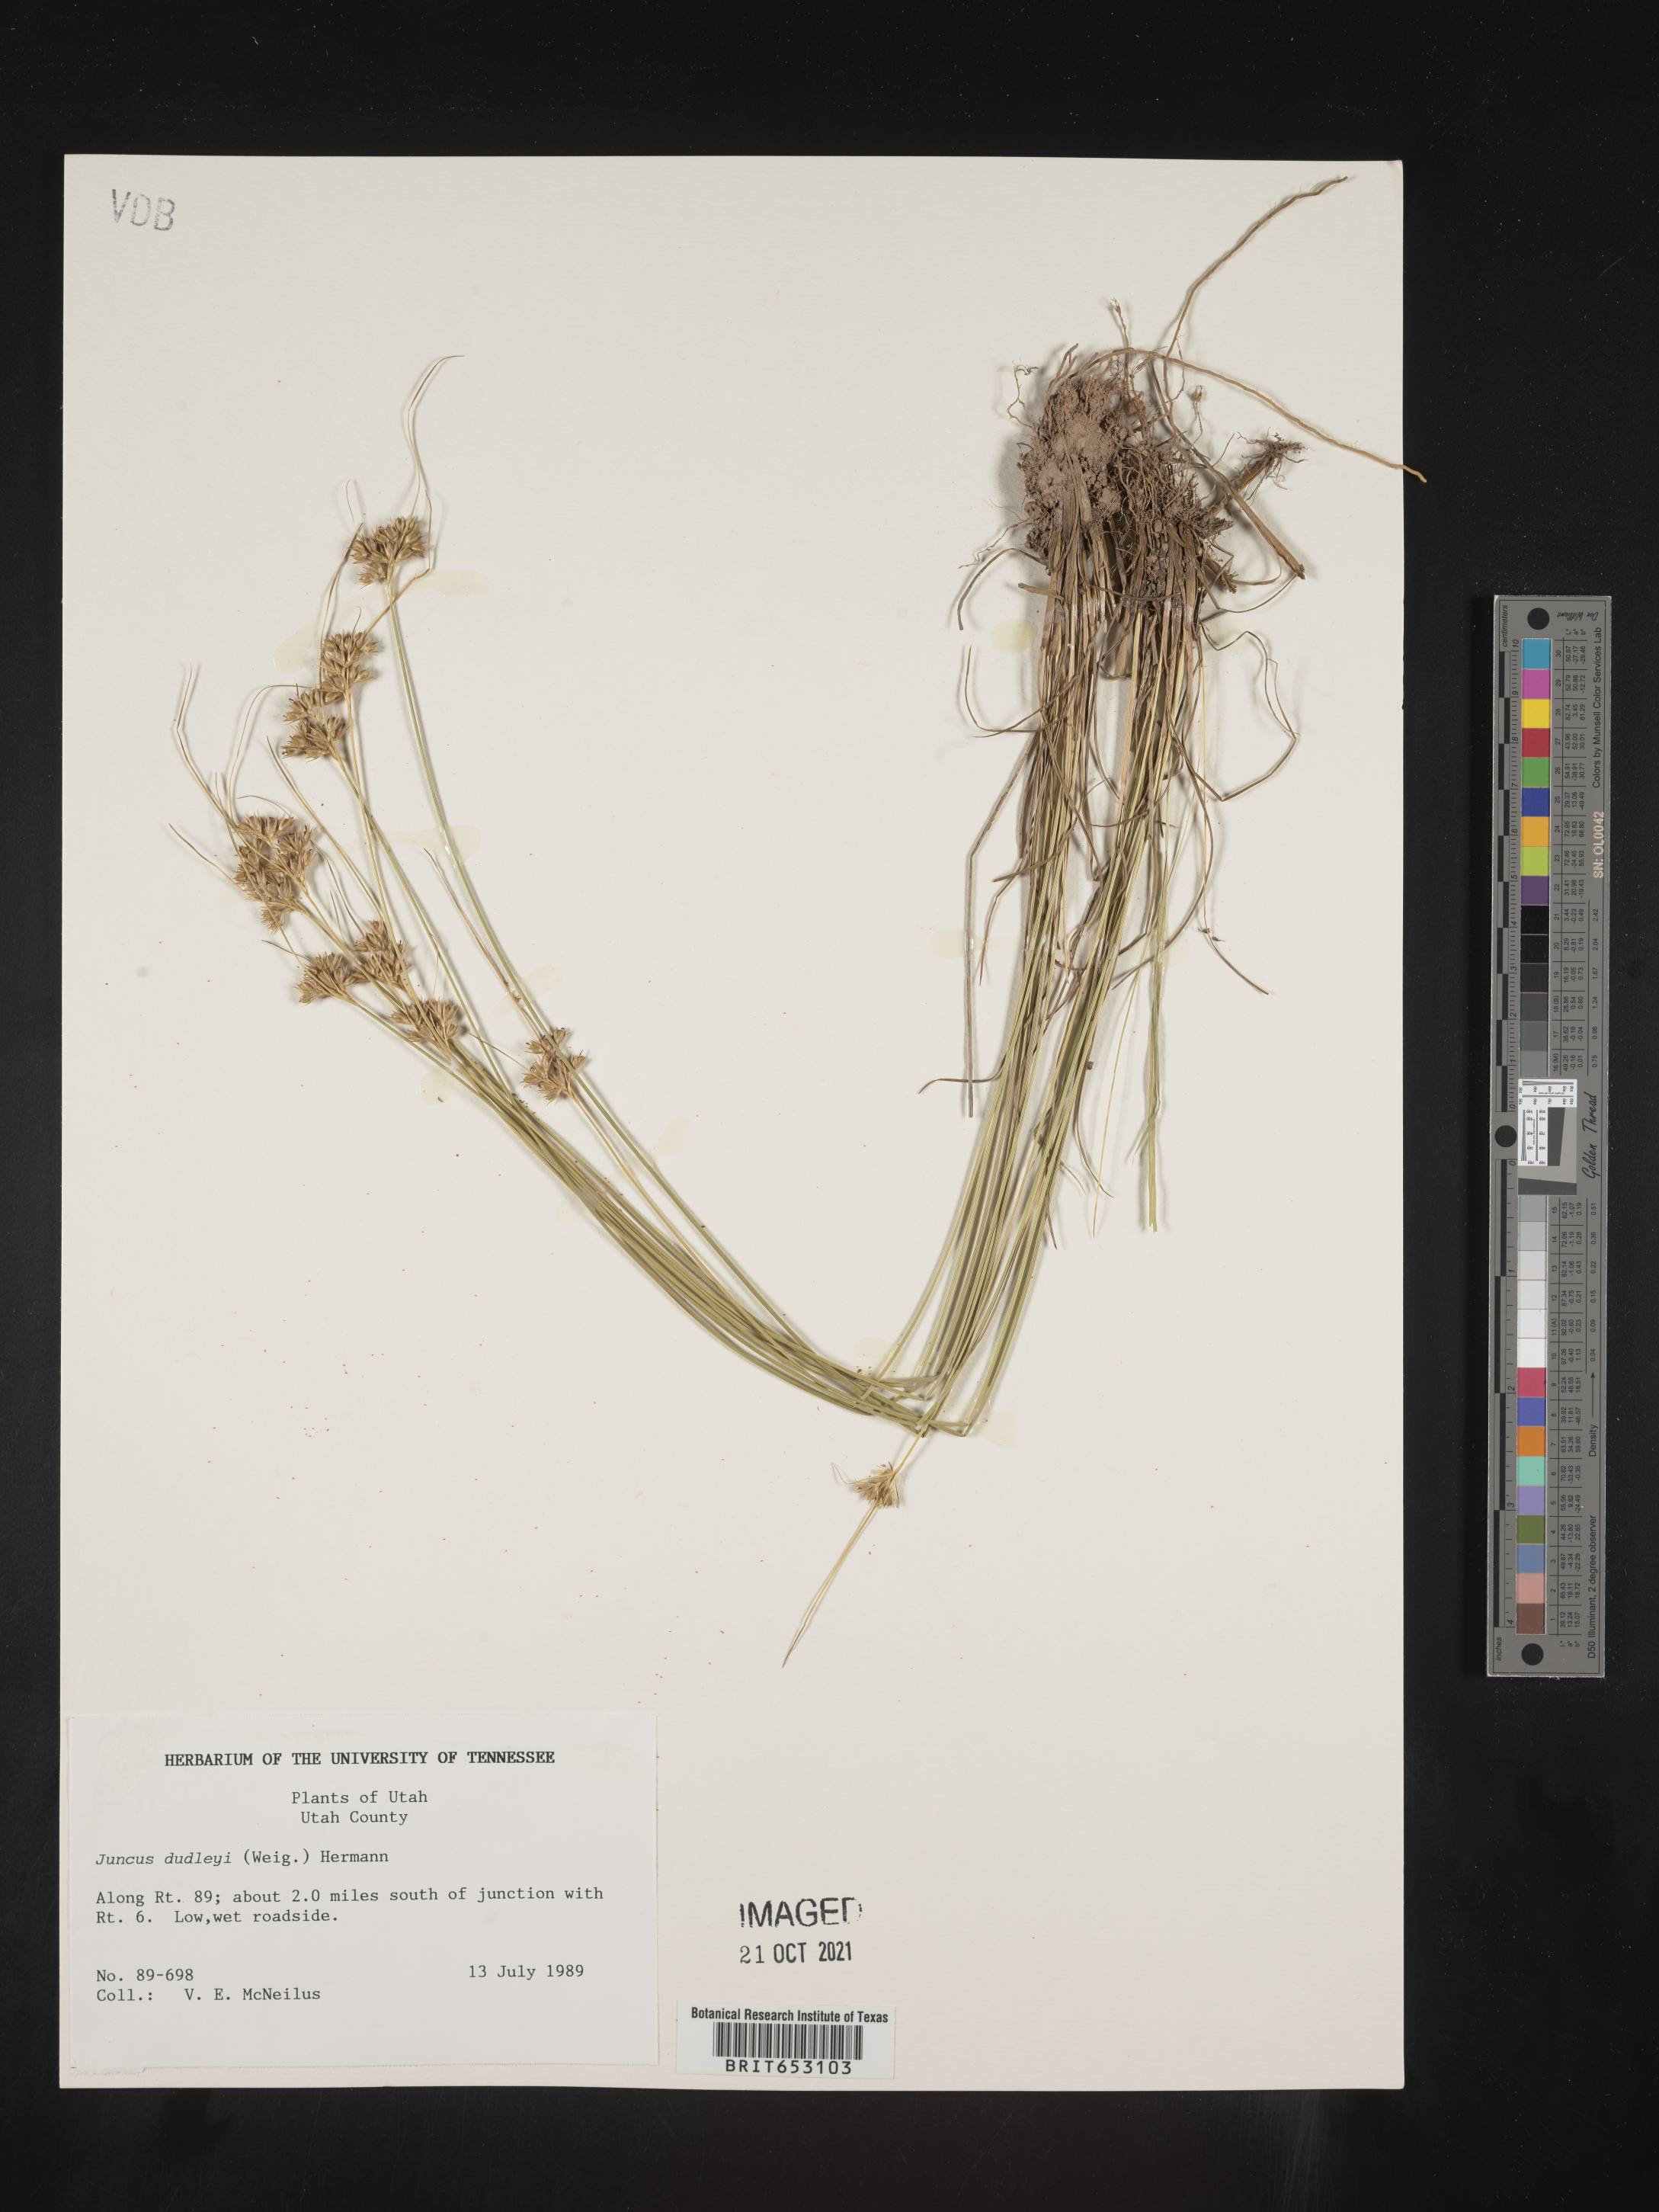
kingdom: Plantae
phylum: Tracheophyta
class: Liliopsida
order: Poales
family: Juncaceae
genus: Juncus
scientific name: Juncus dudleyi
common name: Dudley's rush
